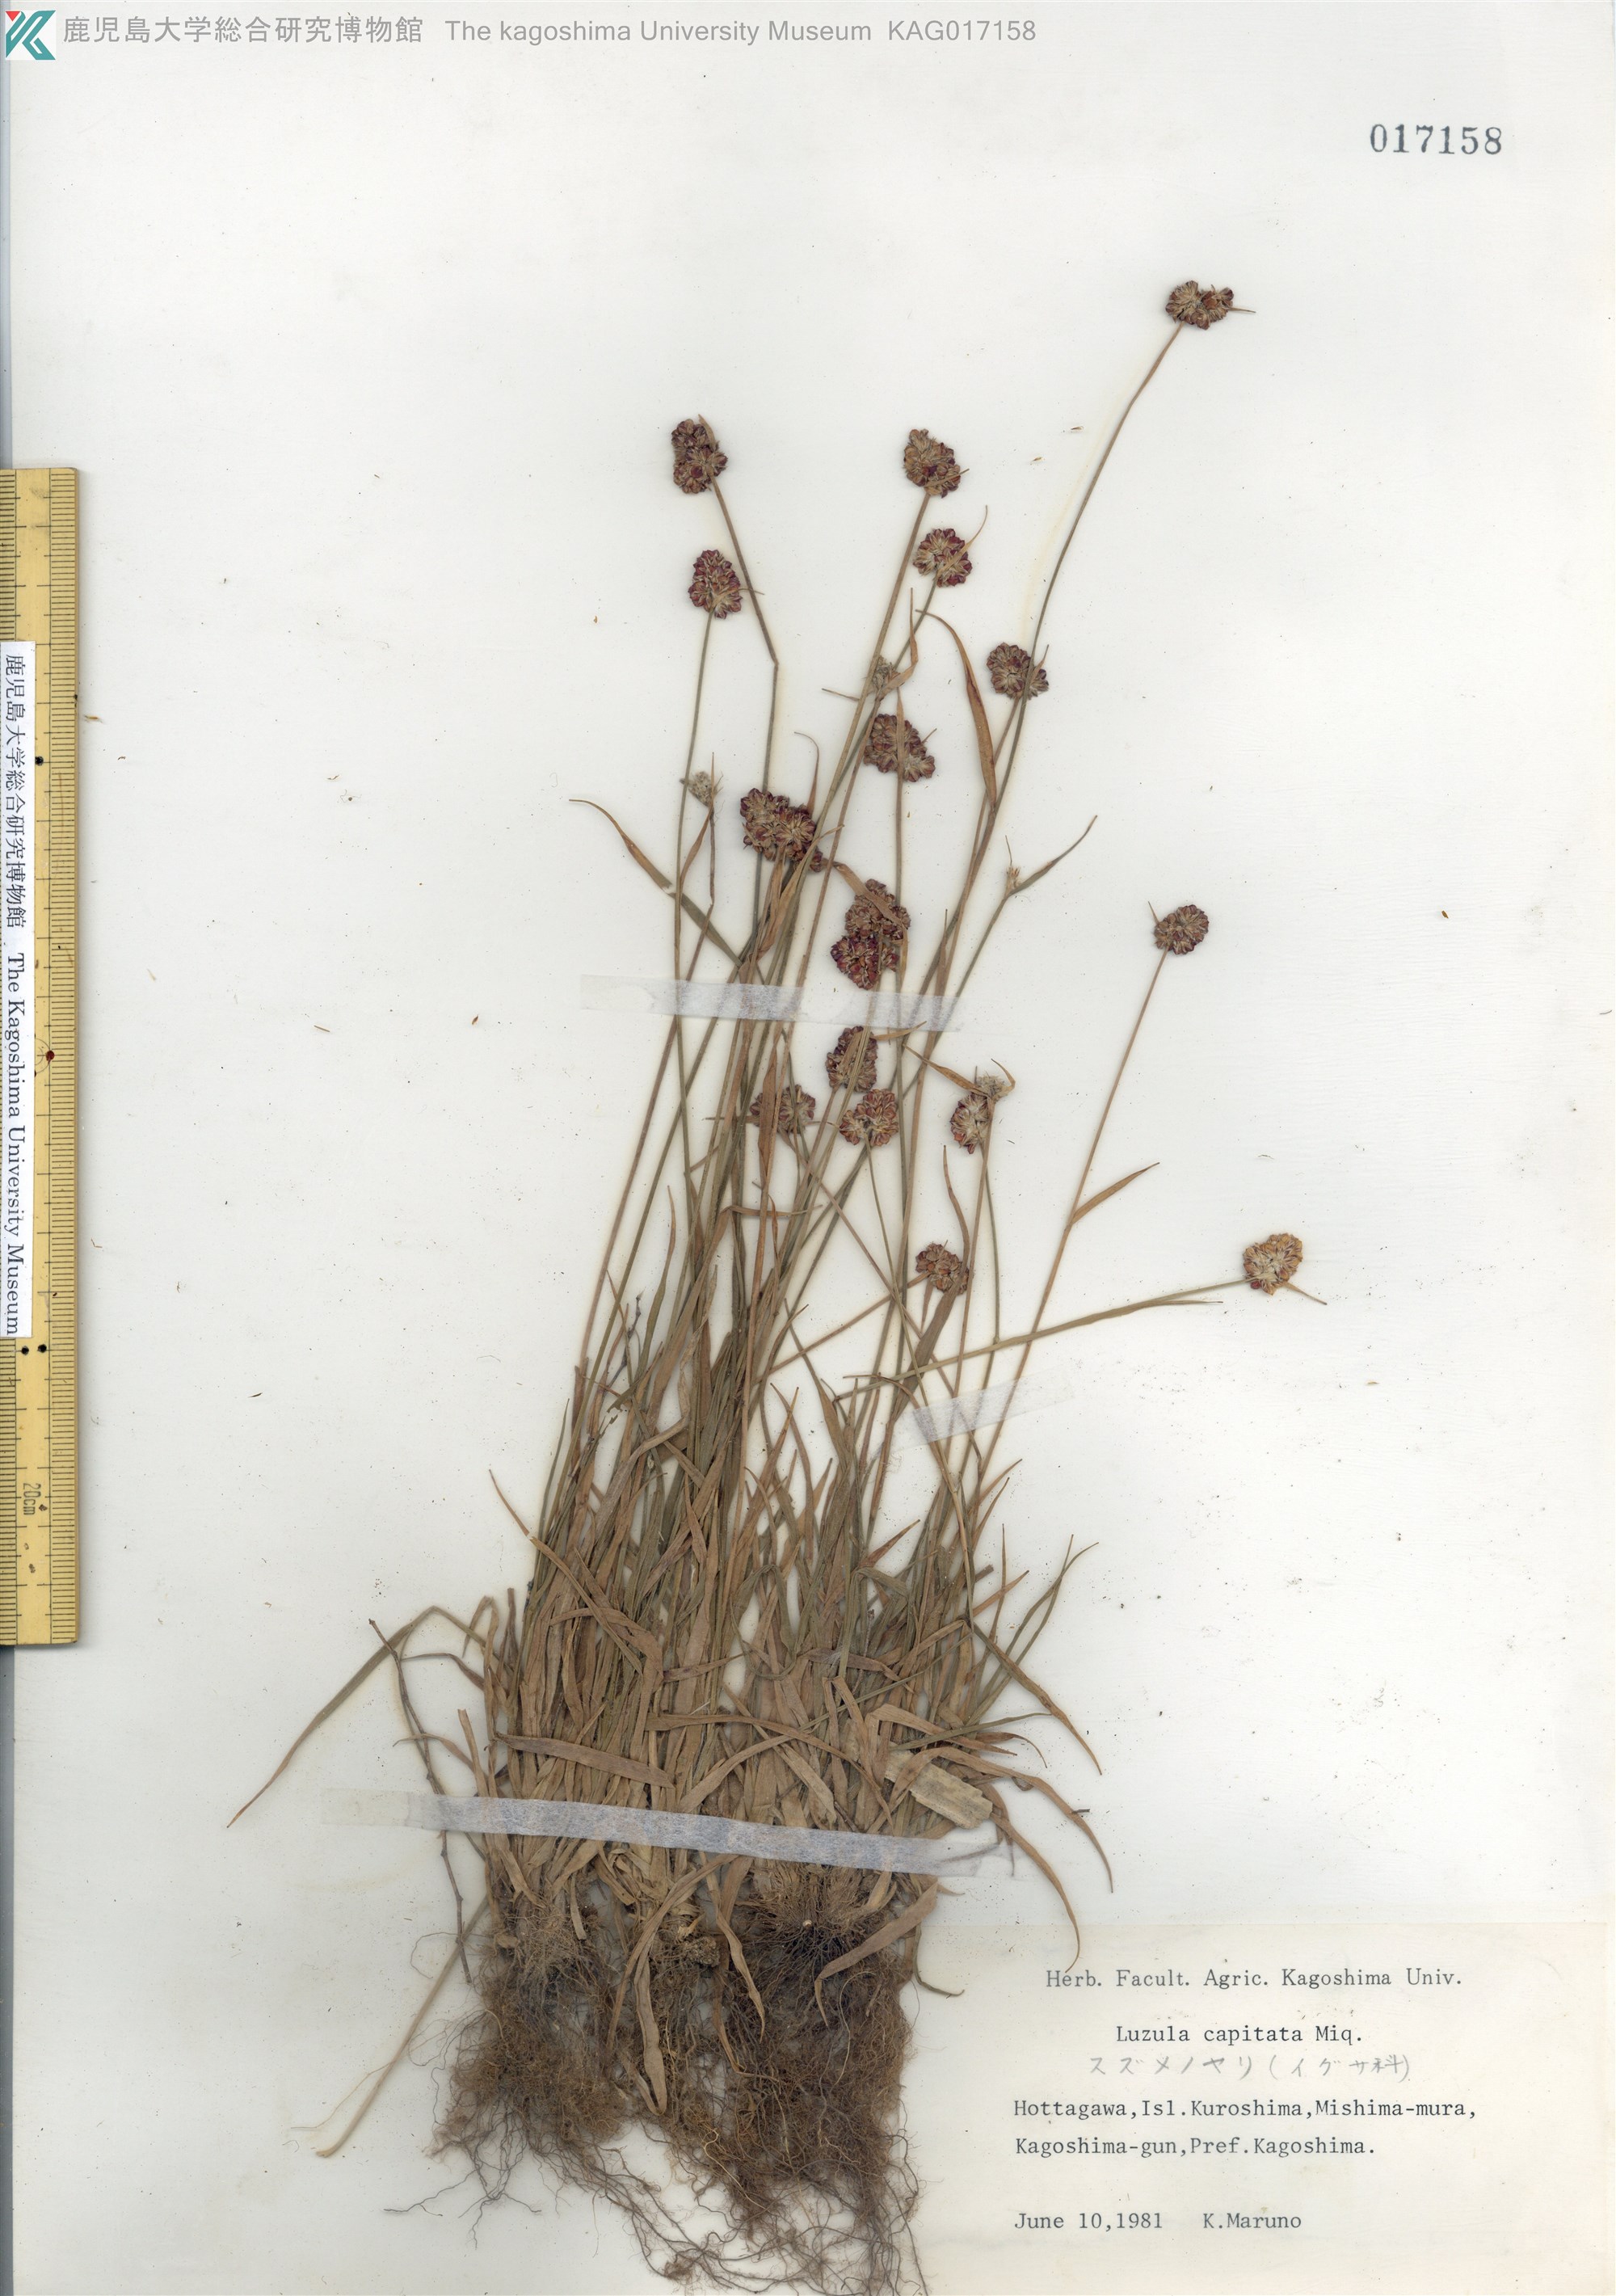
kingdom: Plantae
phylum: Tracheophyta
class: Liliopsida
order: Poales
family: Juncaceae
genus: Luzula
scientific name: Luzula capitata
